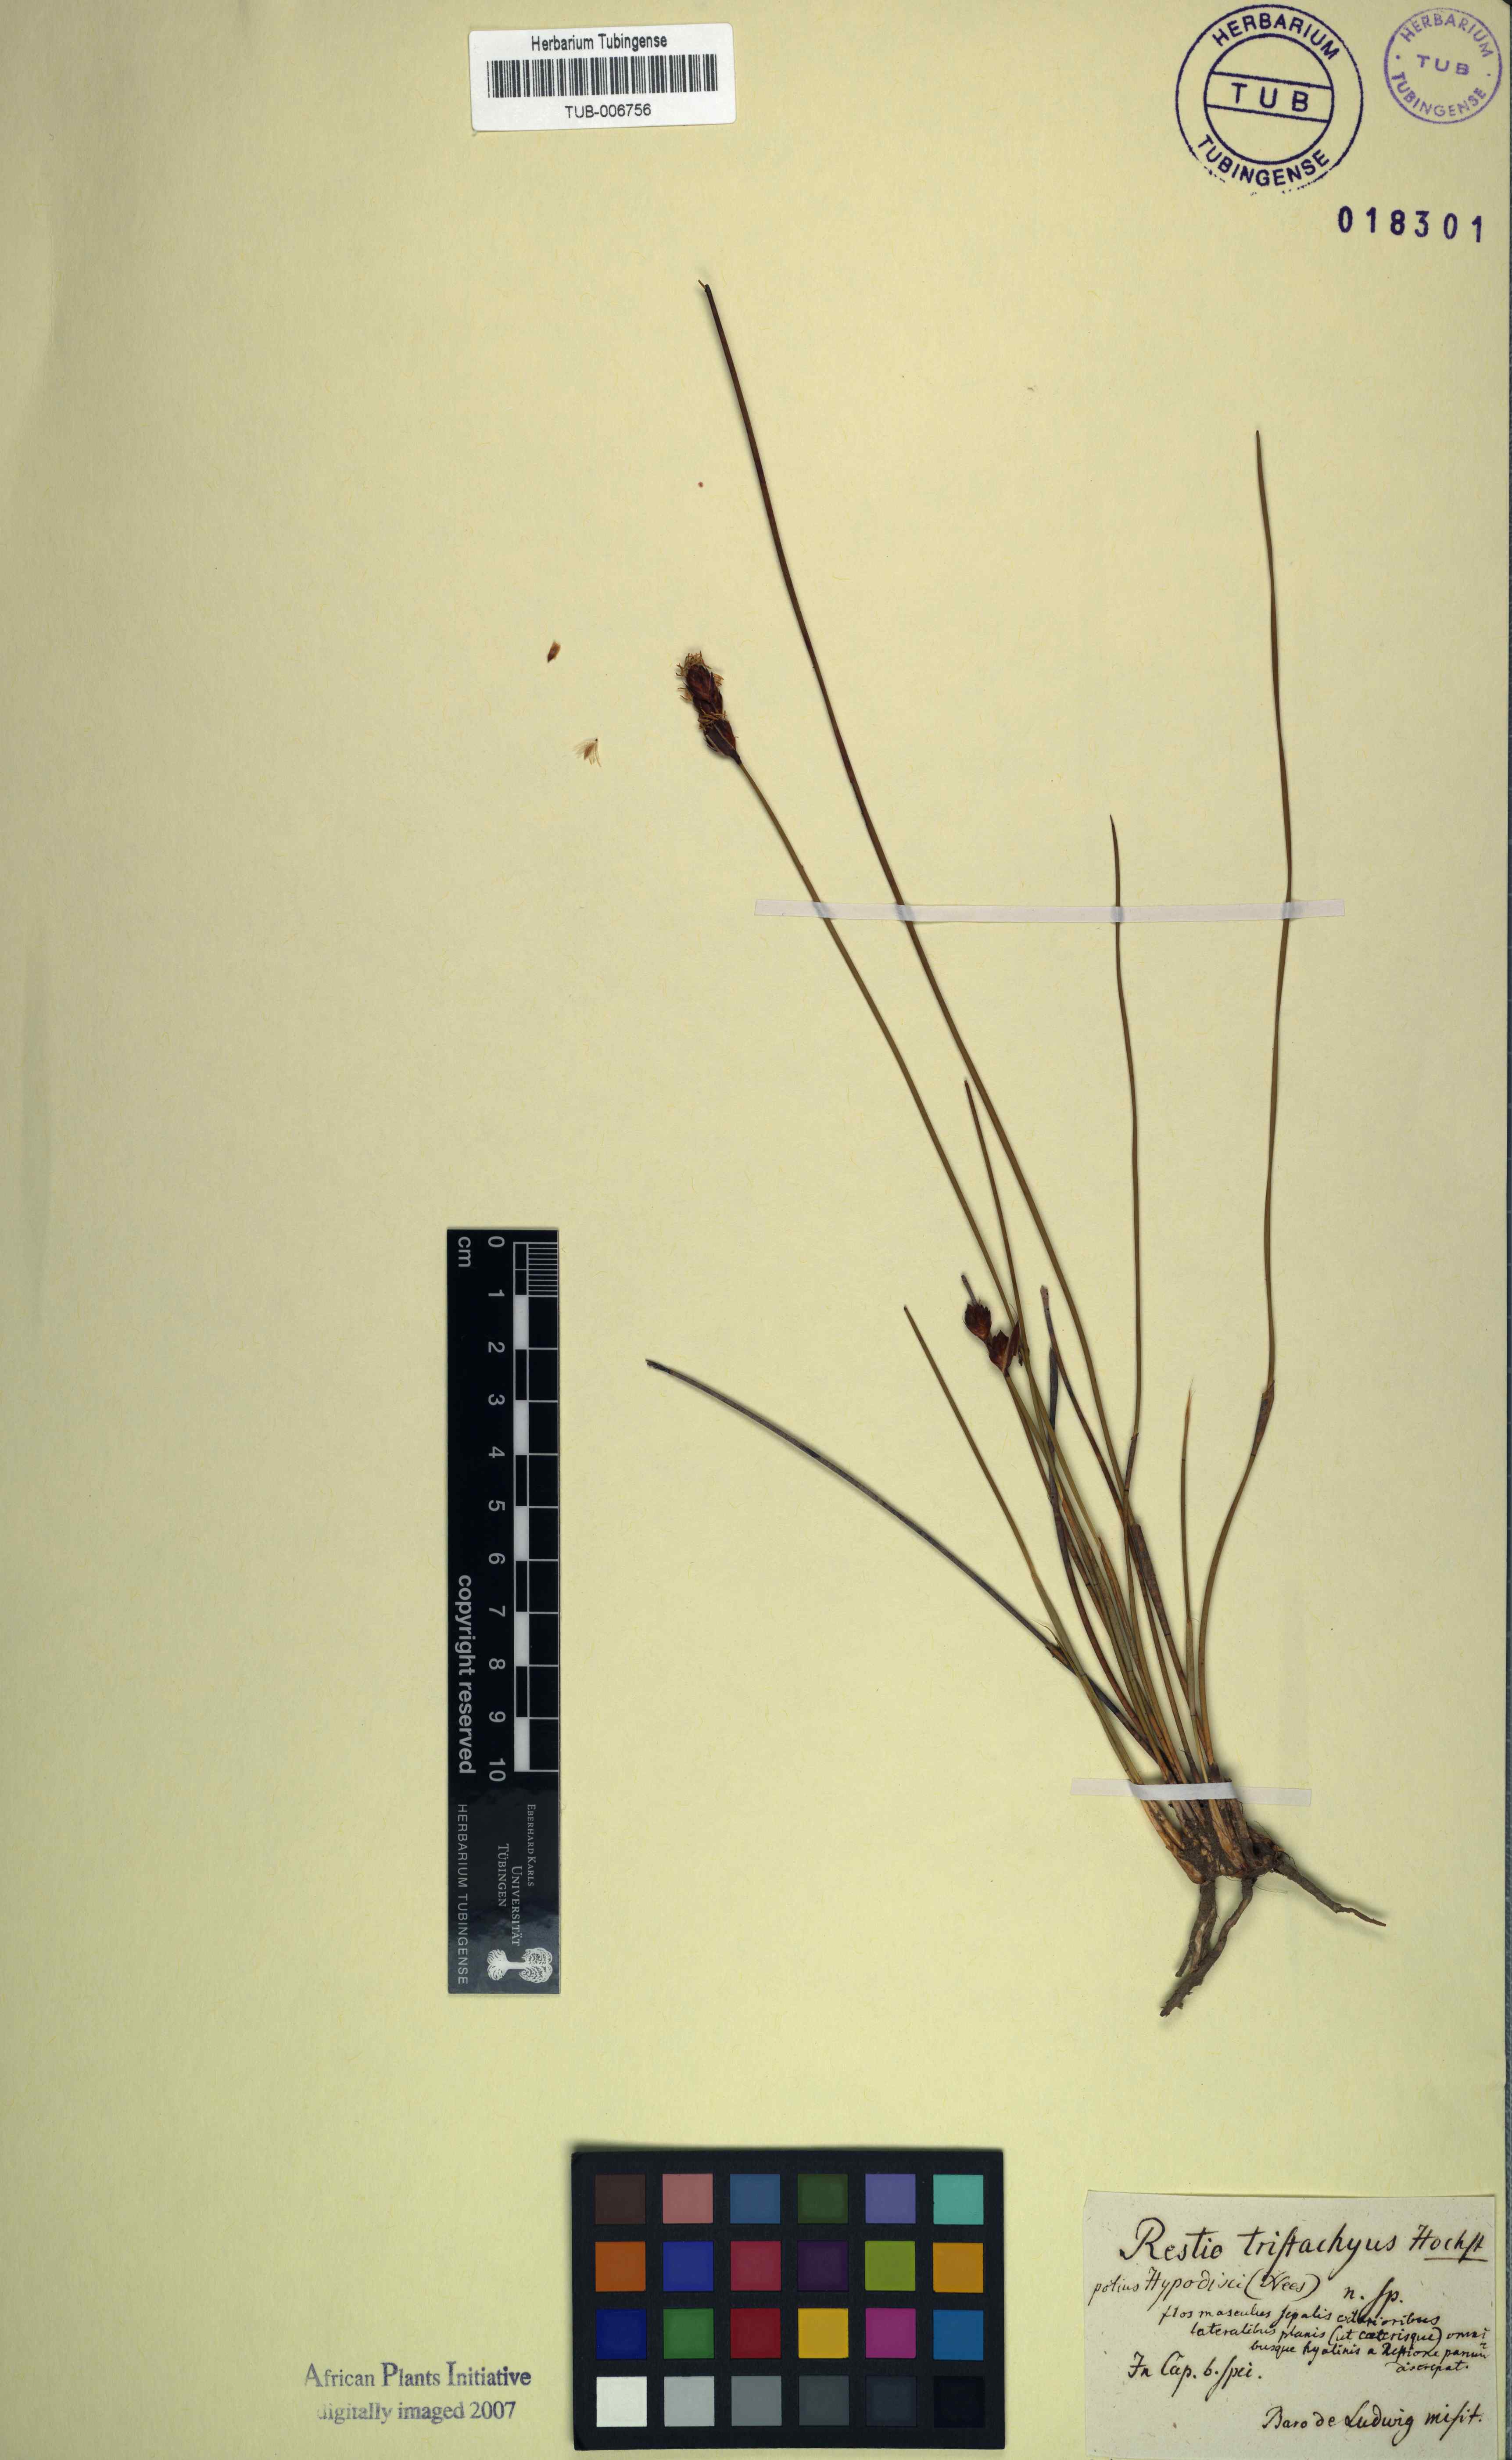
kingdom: Plantae
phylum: Tracheophyta
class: Liliopsida
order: Poales
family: Restionaceae
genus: Hypodiscus
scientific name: Hypodiscus rugosus
